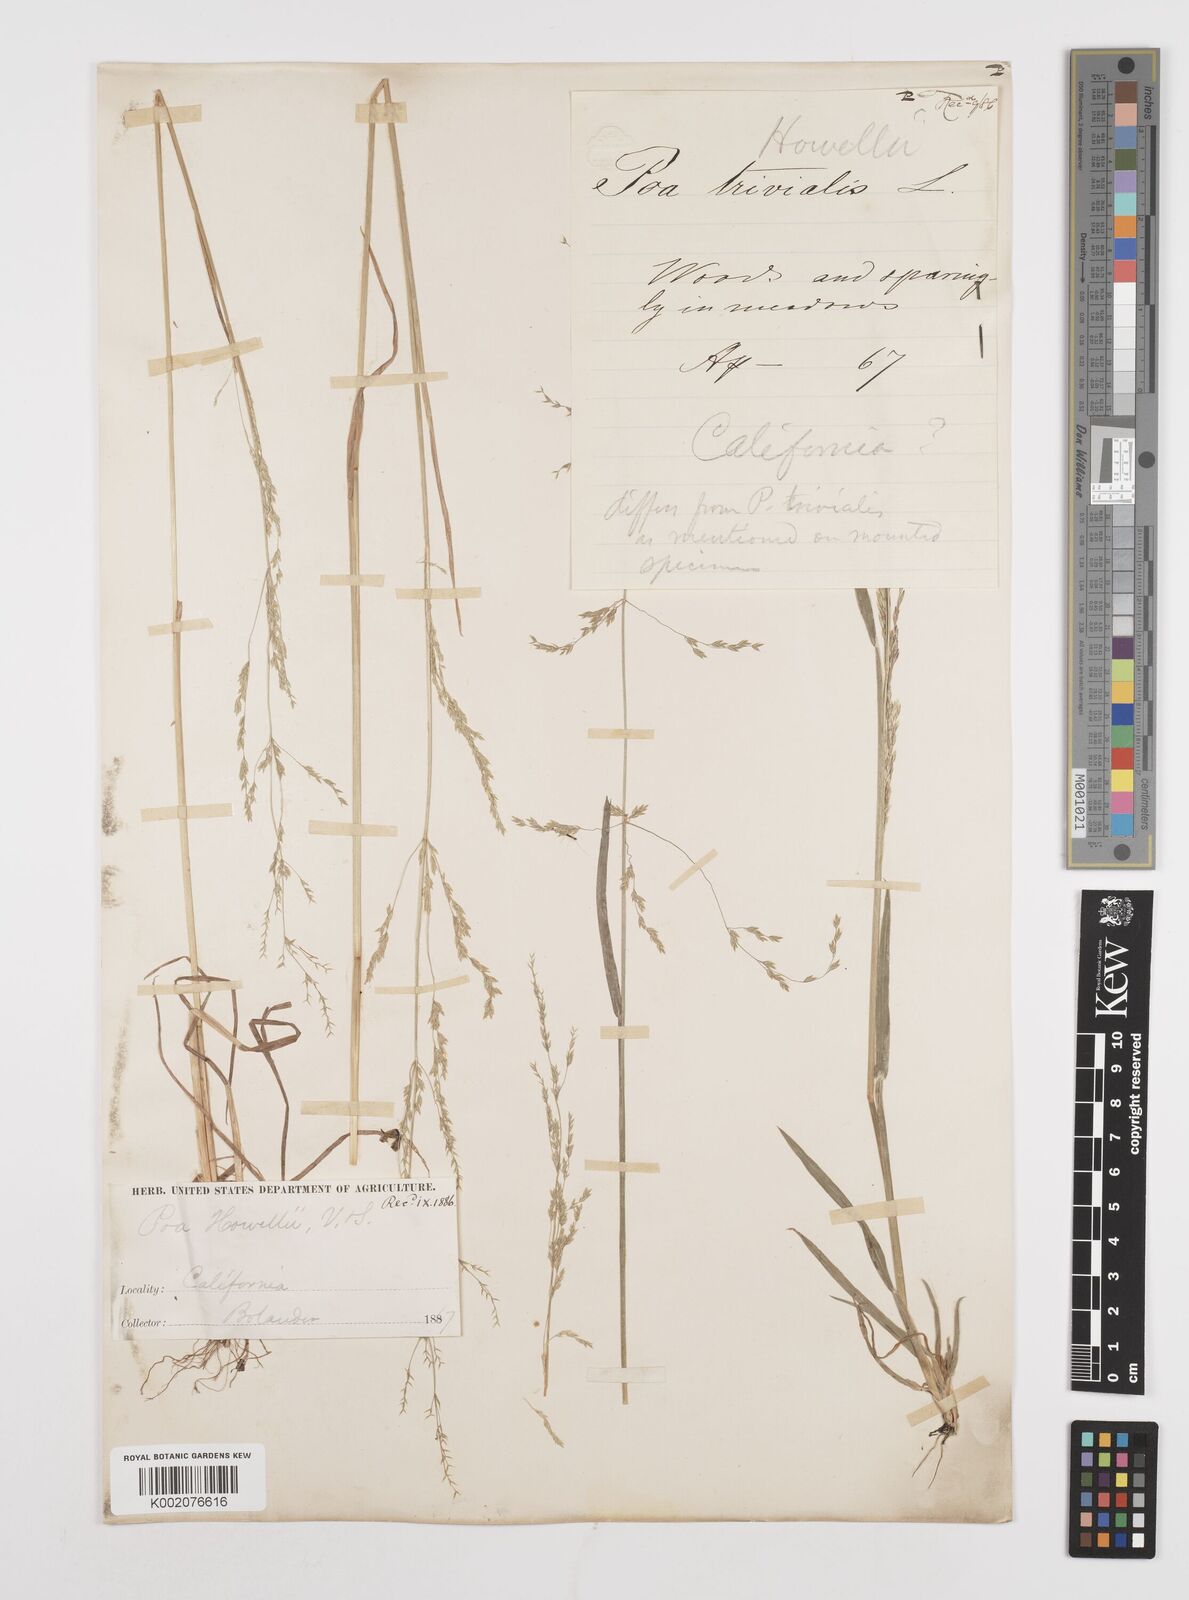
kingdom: Plantae
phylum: Tracheophyta
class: Liliopsida
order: Poales
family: Poaceae
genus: Poa
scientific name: Poa howellii
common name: Howell's bluegrass
